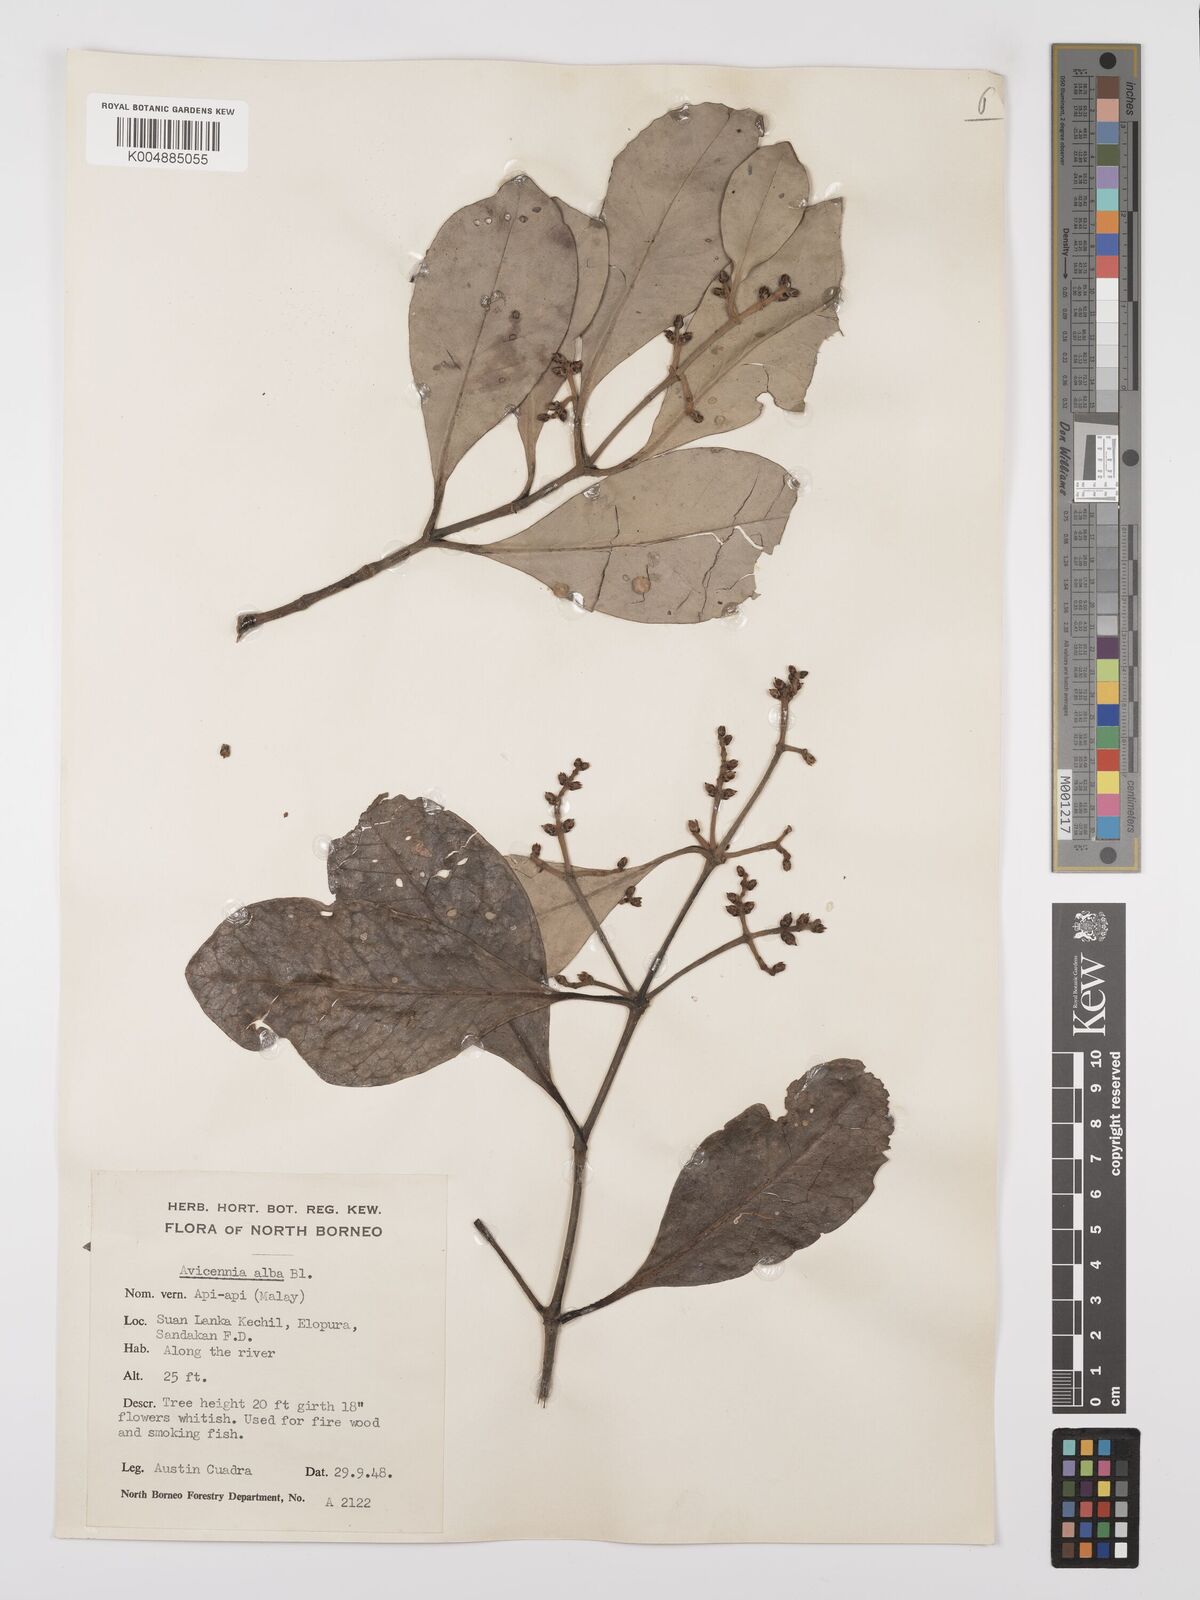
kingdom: Plantae
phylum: Tracheophyta
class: Magnoliopsida
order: Lamiales
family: Acanthaceae
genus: Avicennia
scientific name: Avicennia alba
